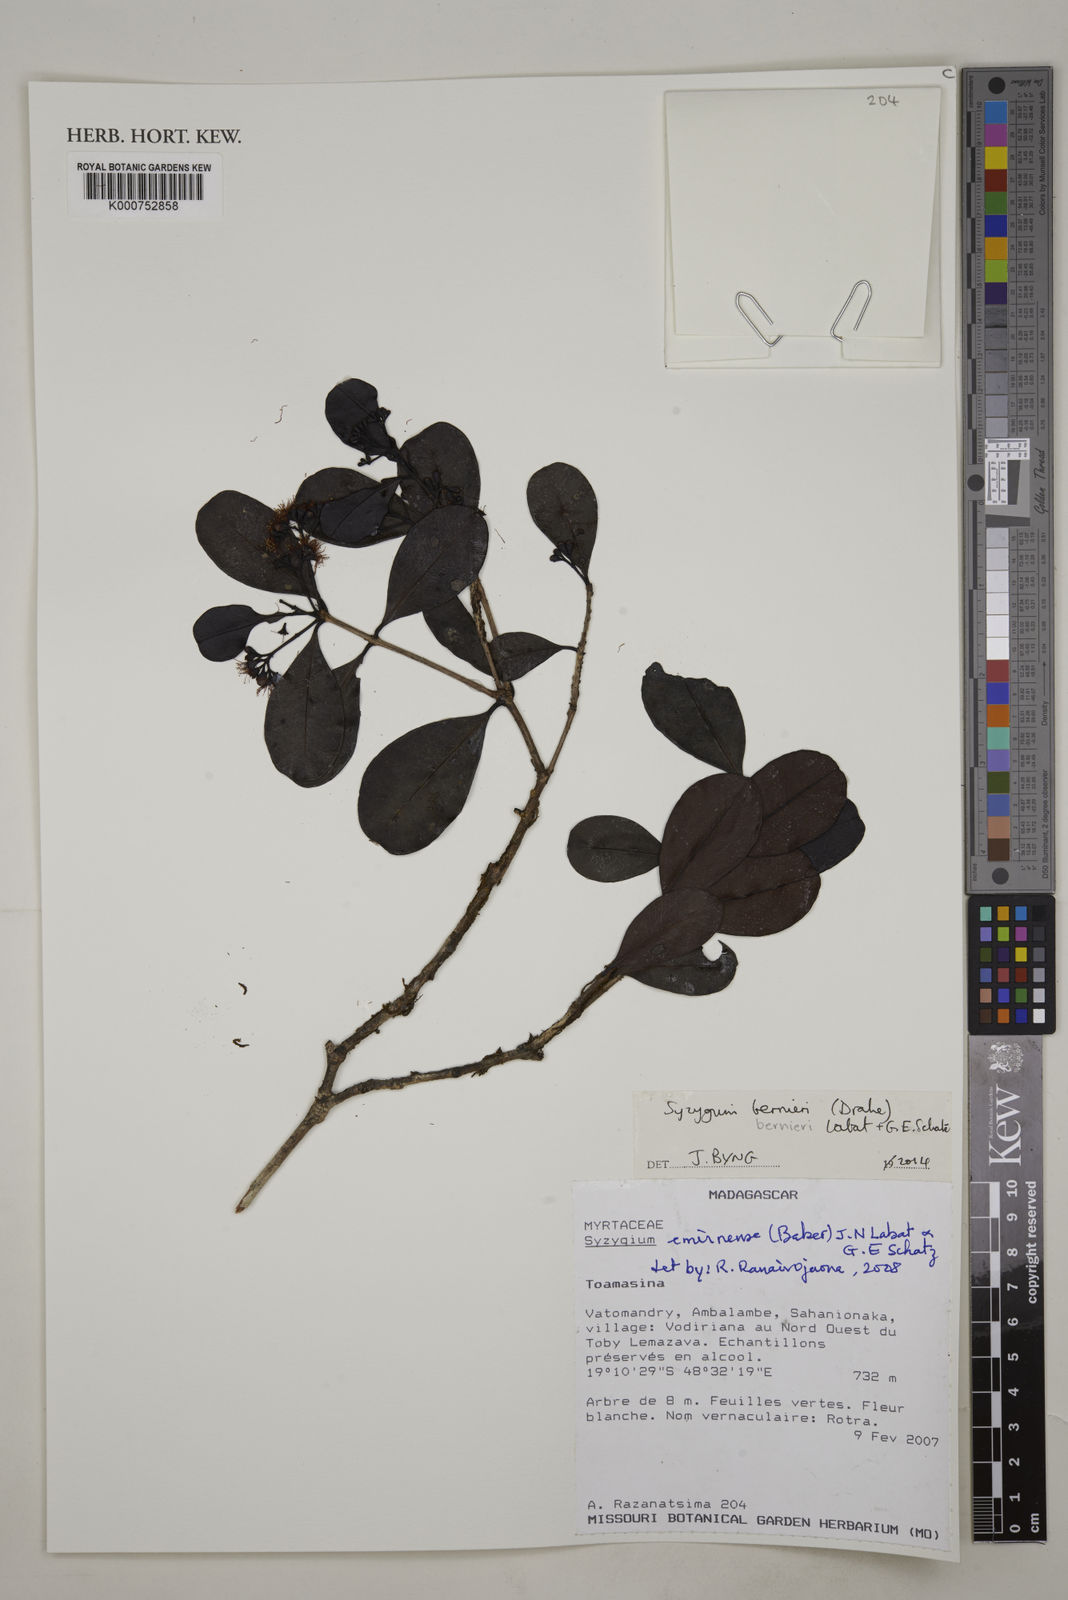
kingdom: Plantae
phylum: Tracheophyta
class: Magnoliopsida
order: Myrtales
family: Myrtaceae
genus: Syzygium
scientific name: Syzygium bernieri
